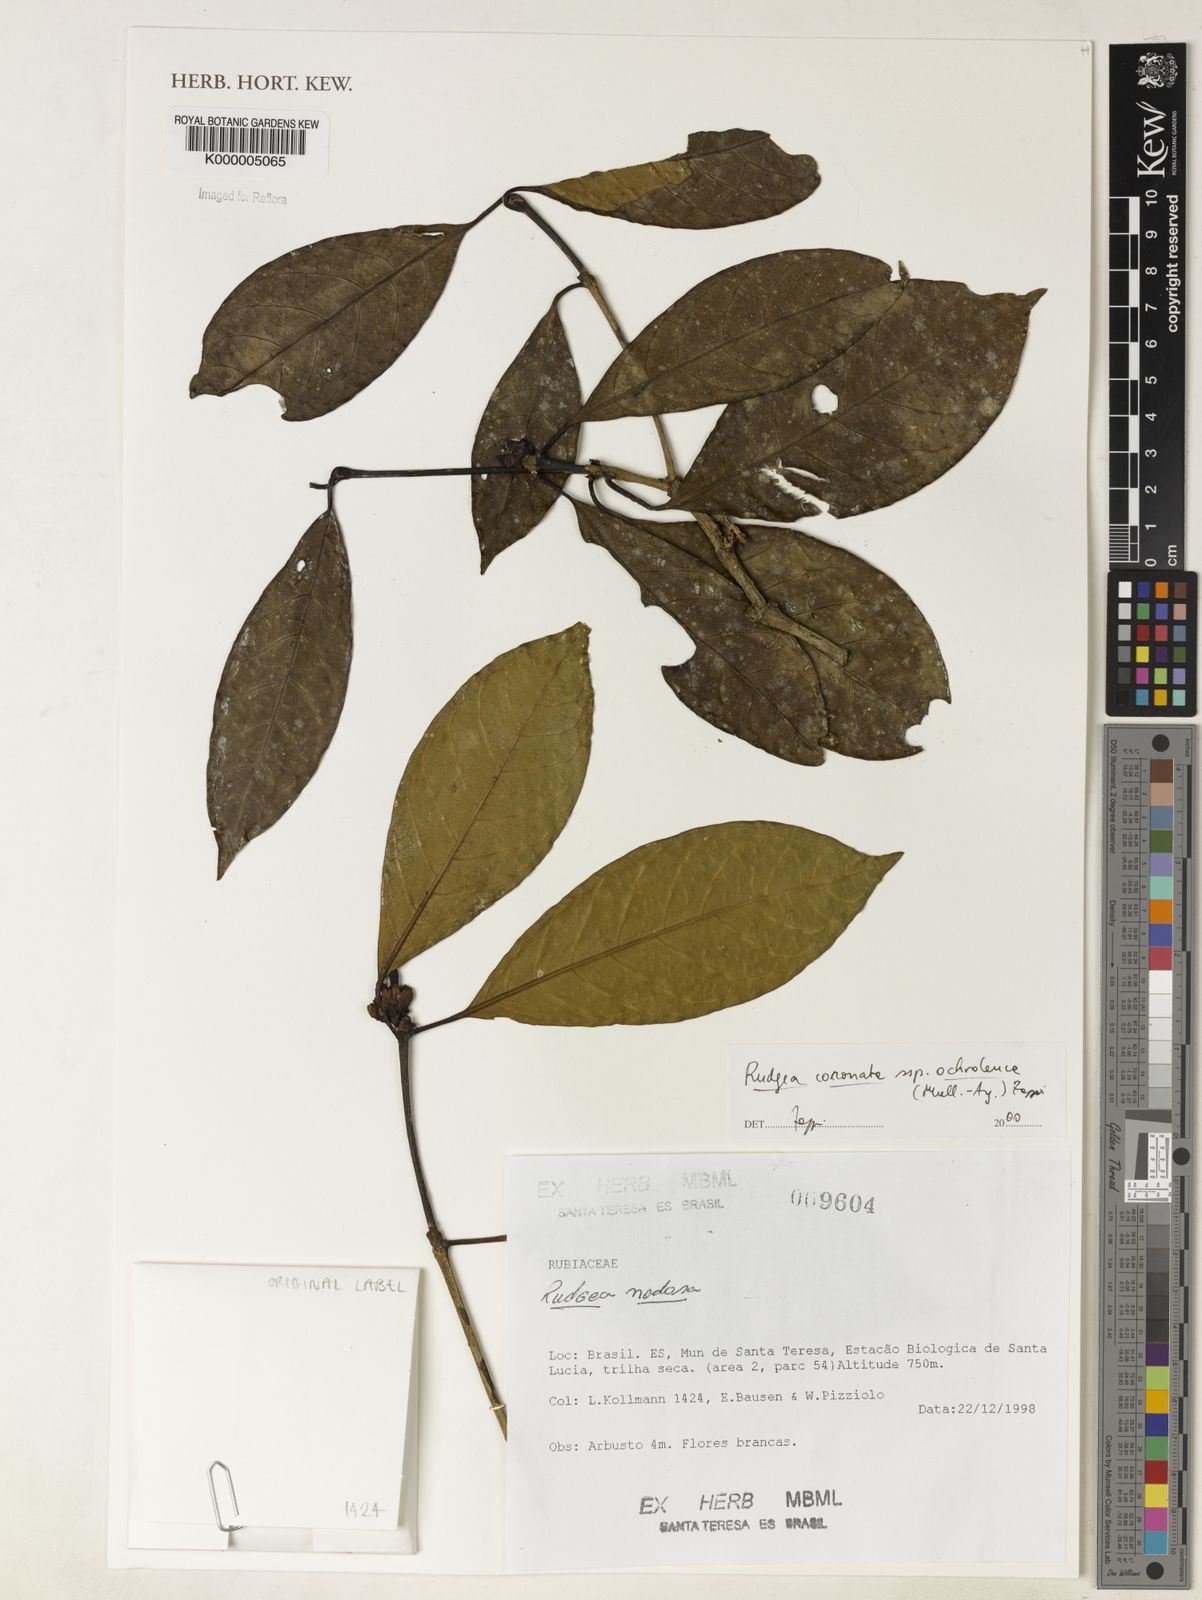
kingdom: Plantae
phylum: Tracheophyta
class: Magnoliopsida
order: Gentianales
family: Rubiaceae
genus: Rudgea
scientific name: Rudgea coronata
